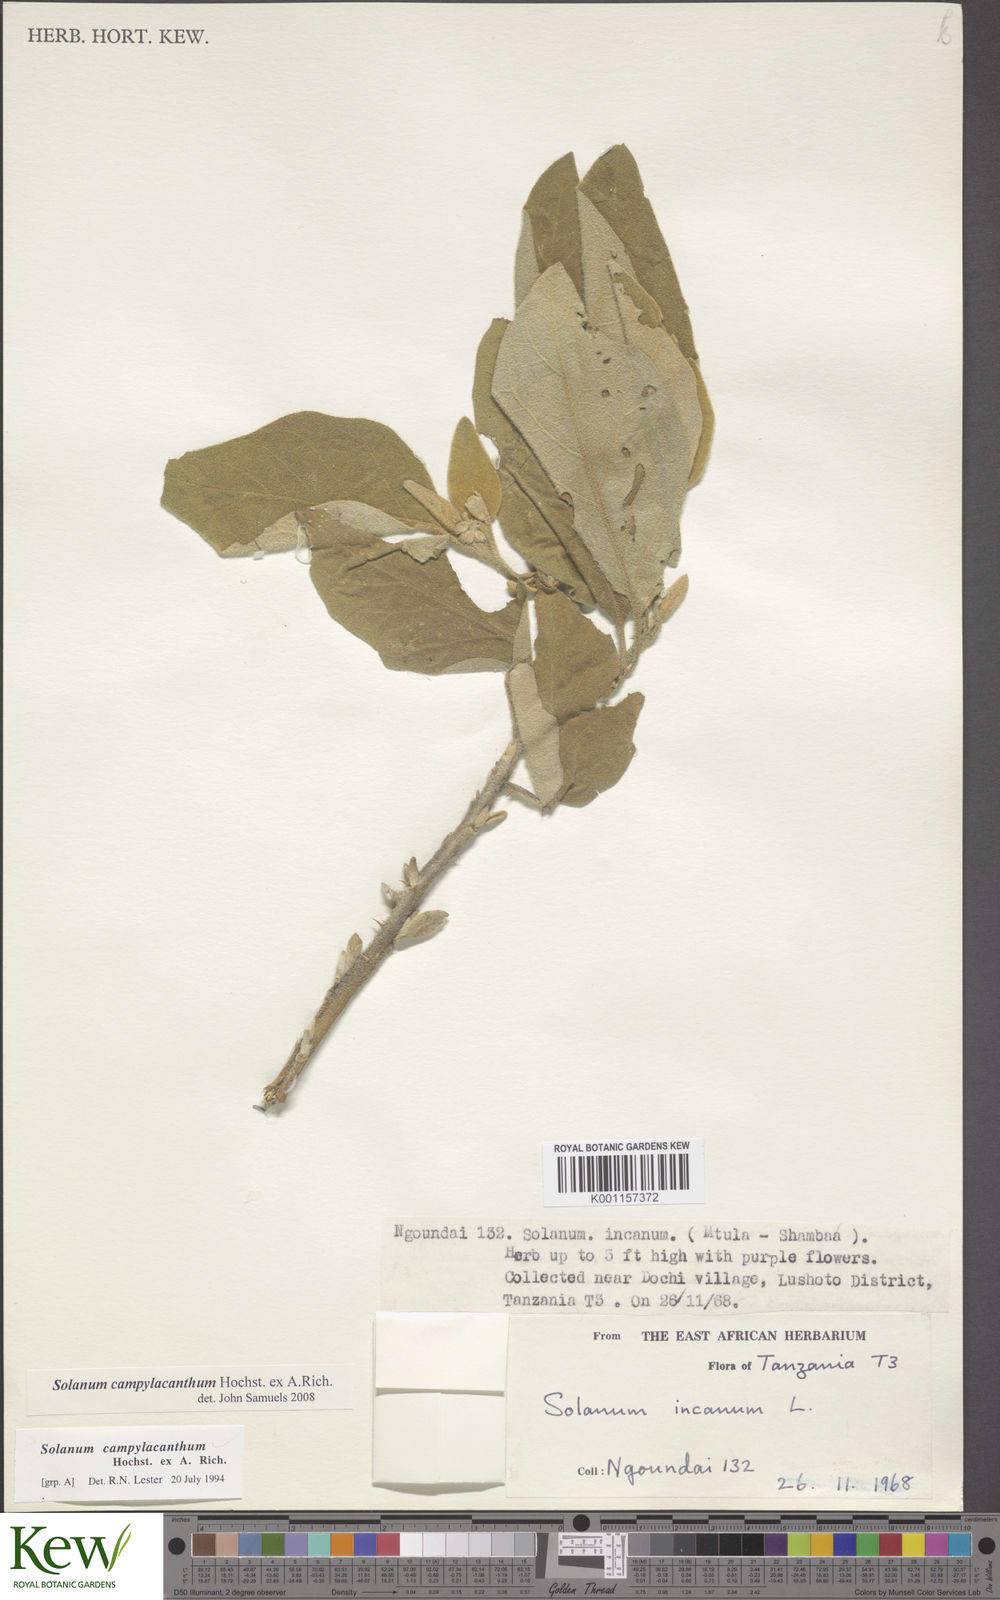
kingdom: Plantae
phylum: Tracheophyta
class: Magnoliopsida
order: Solanales
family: Solanaceae
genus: Solanum
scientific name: Solanum campylacanthum
